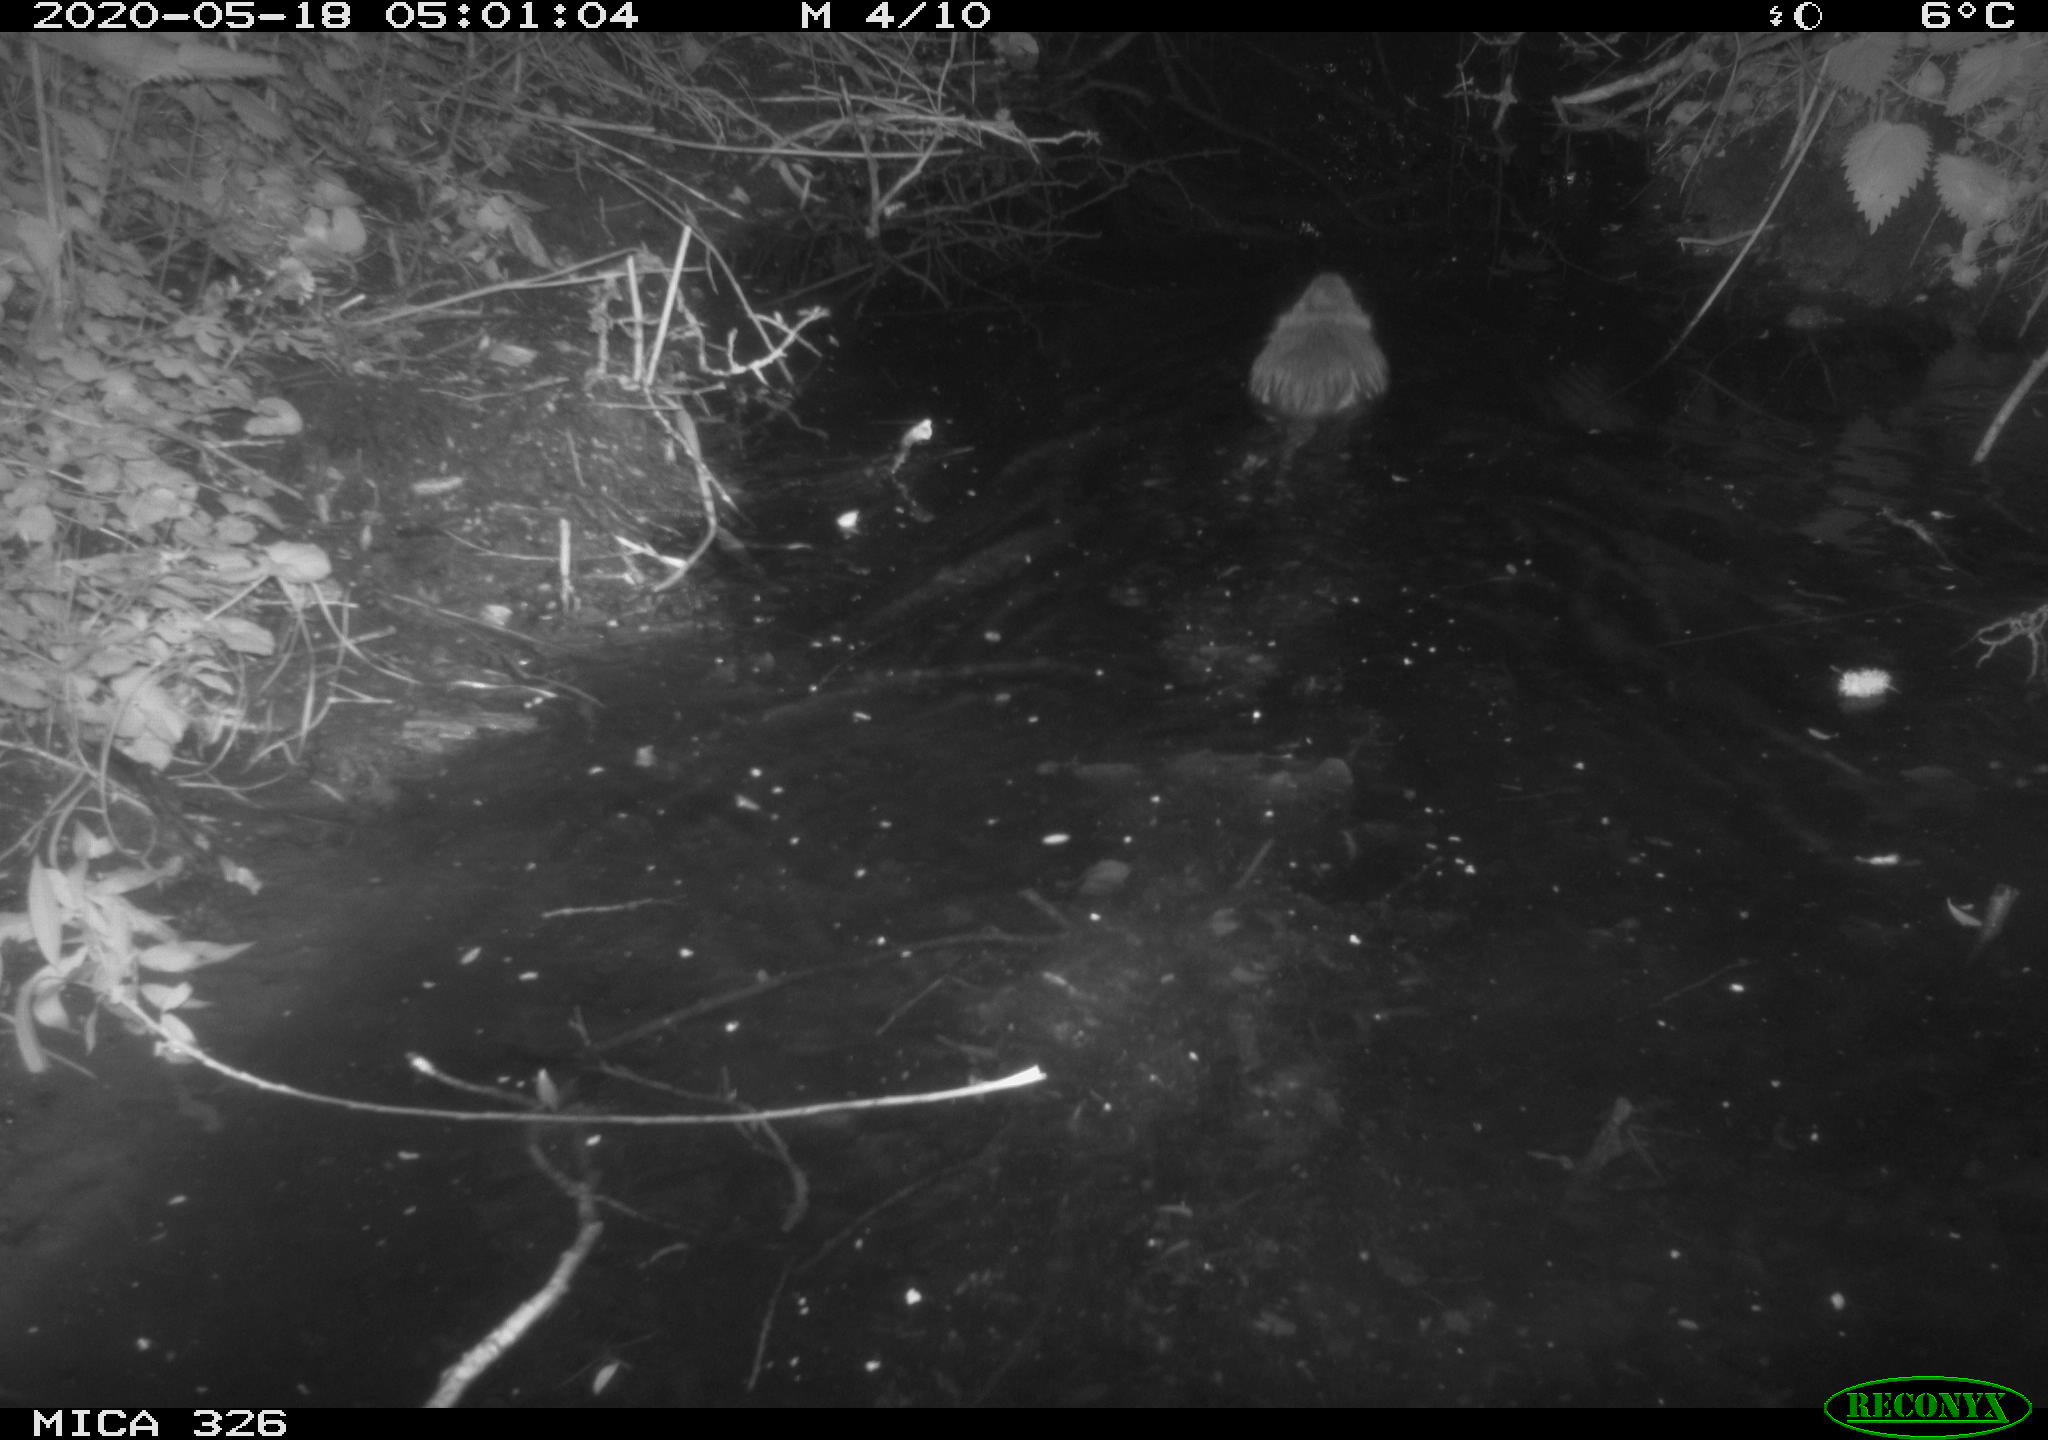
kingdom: Animalia
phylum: Chordata
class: Mammalia
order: Rodentia
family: Myocastoridae
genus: Myocastor
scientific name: Myocastor coypus
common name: Coypu
